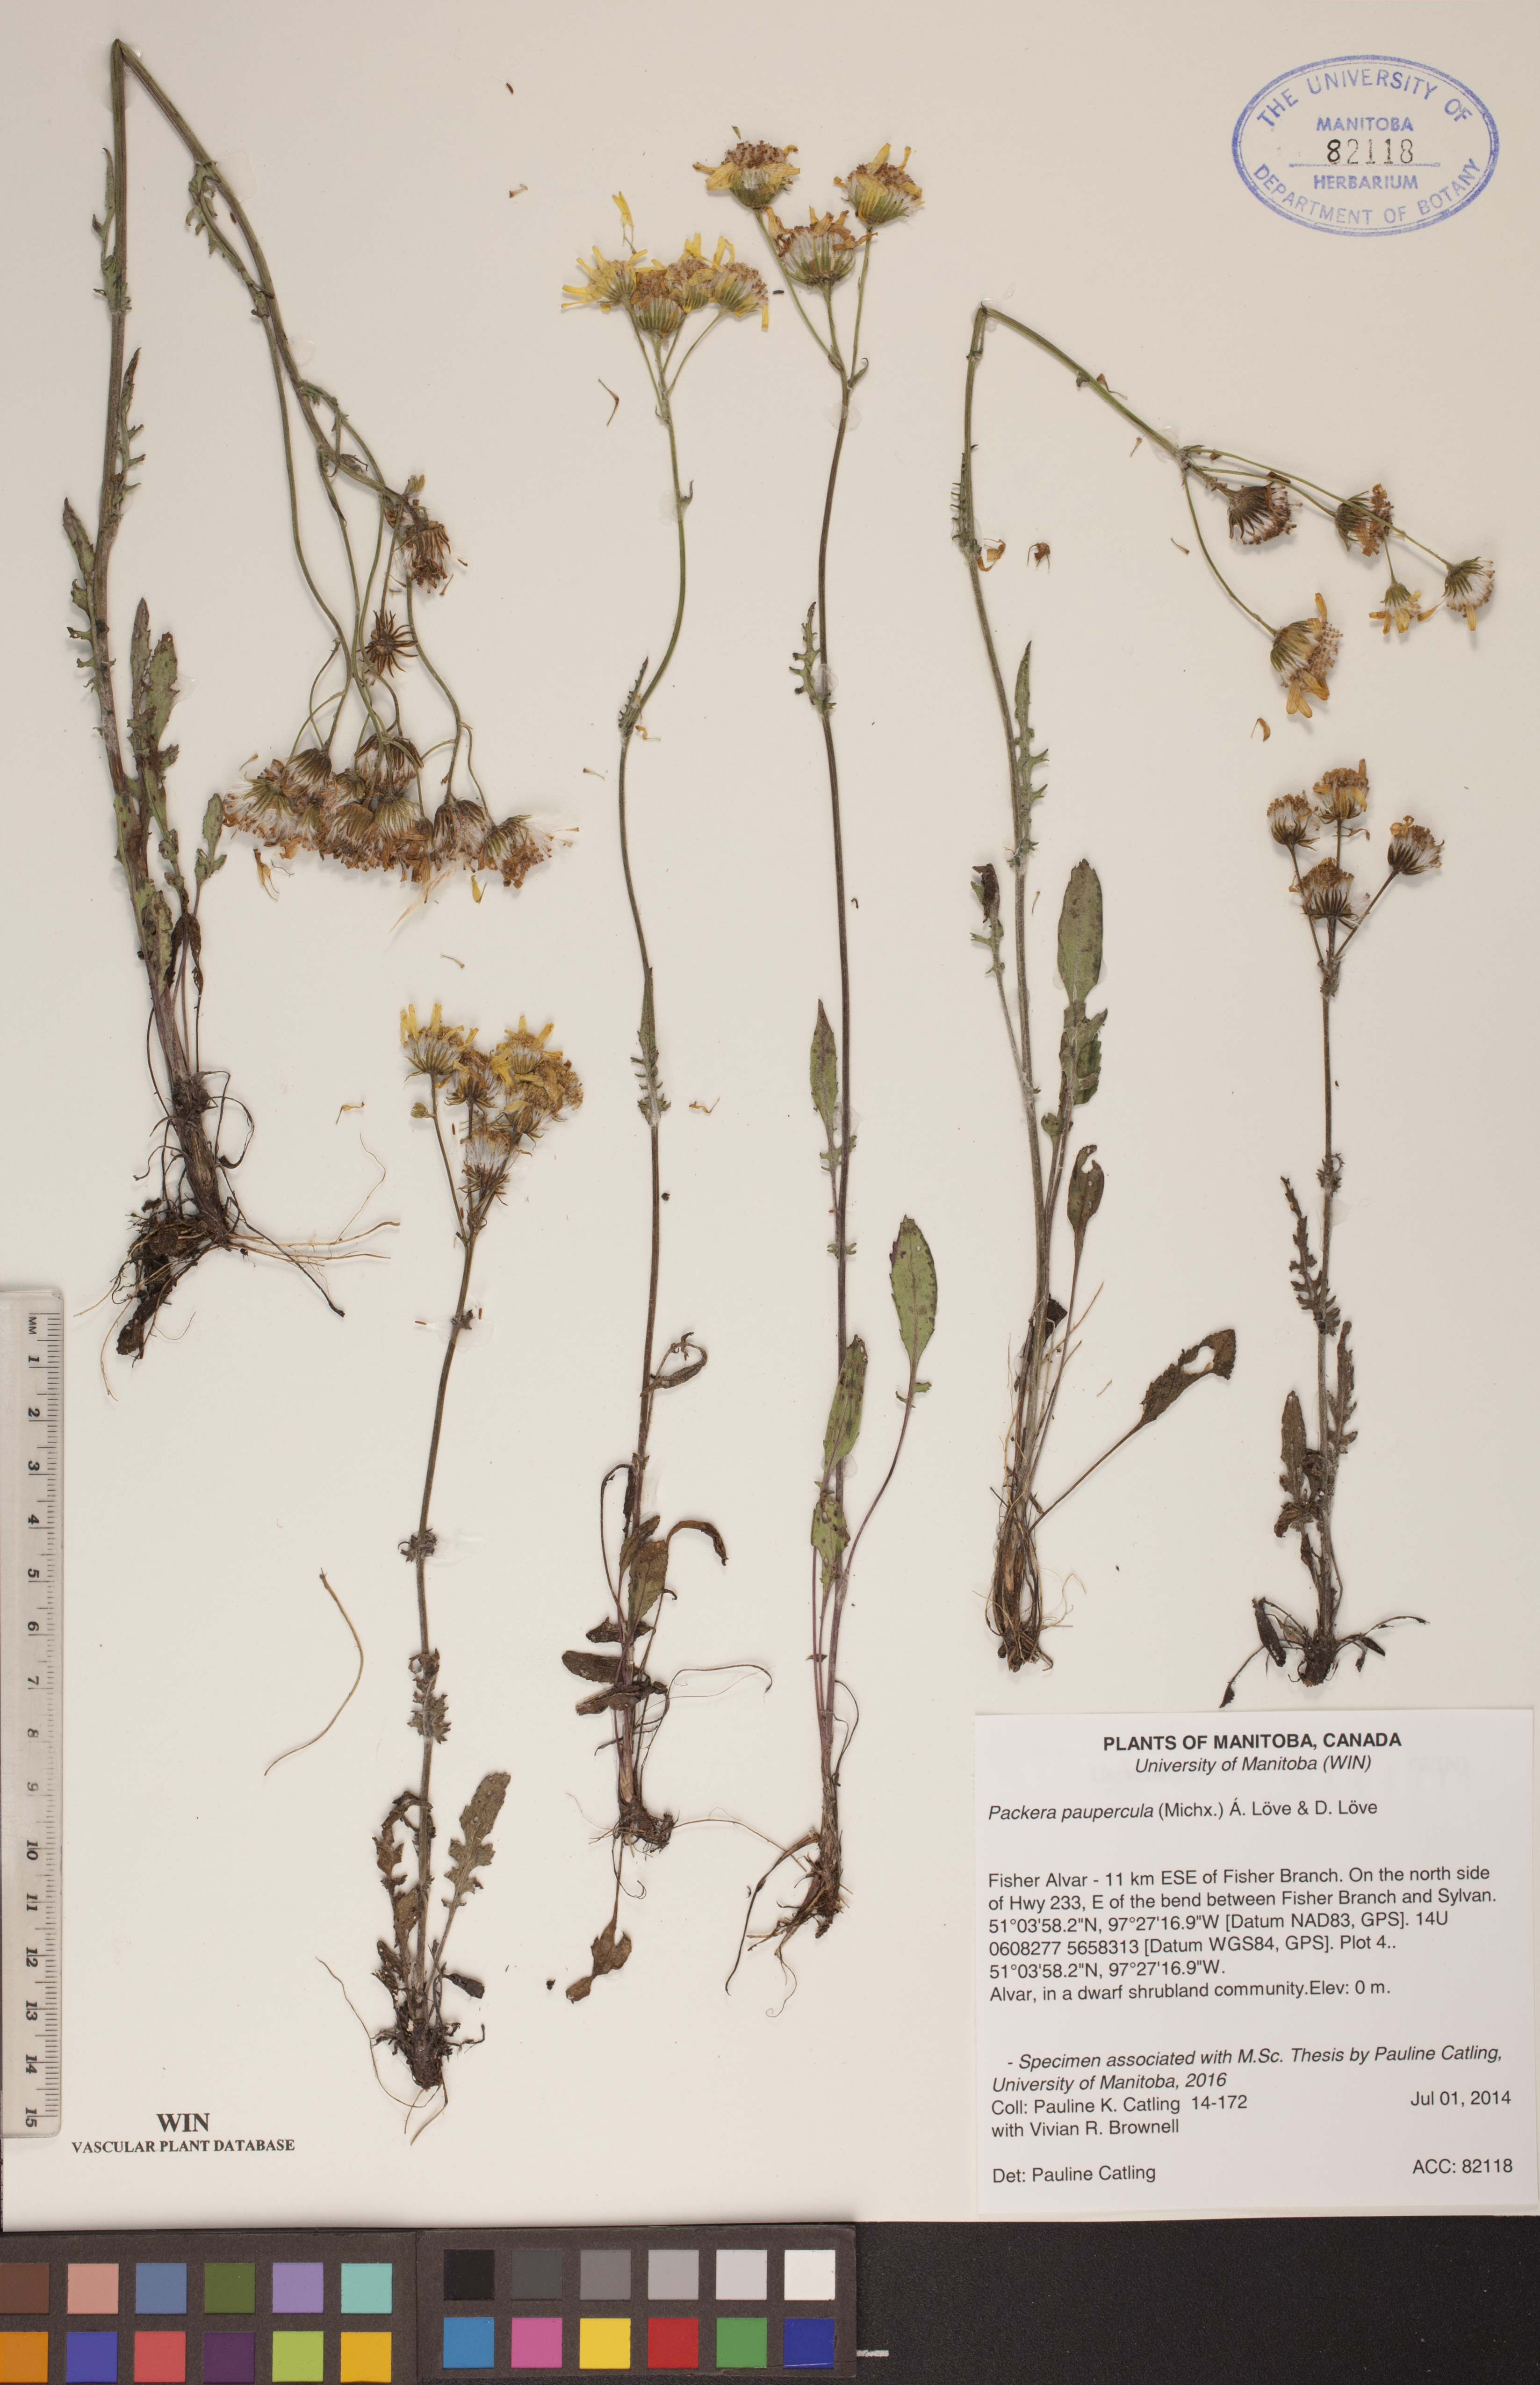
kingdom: Plantae
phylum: Tracheophyta
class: Magnoliopsida
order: Asterales
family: Asteraceae
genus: Packera
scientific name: Packera paupercula
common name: Balsam groundsel
